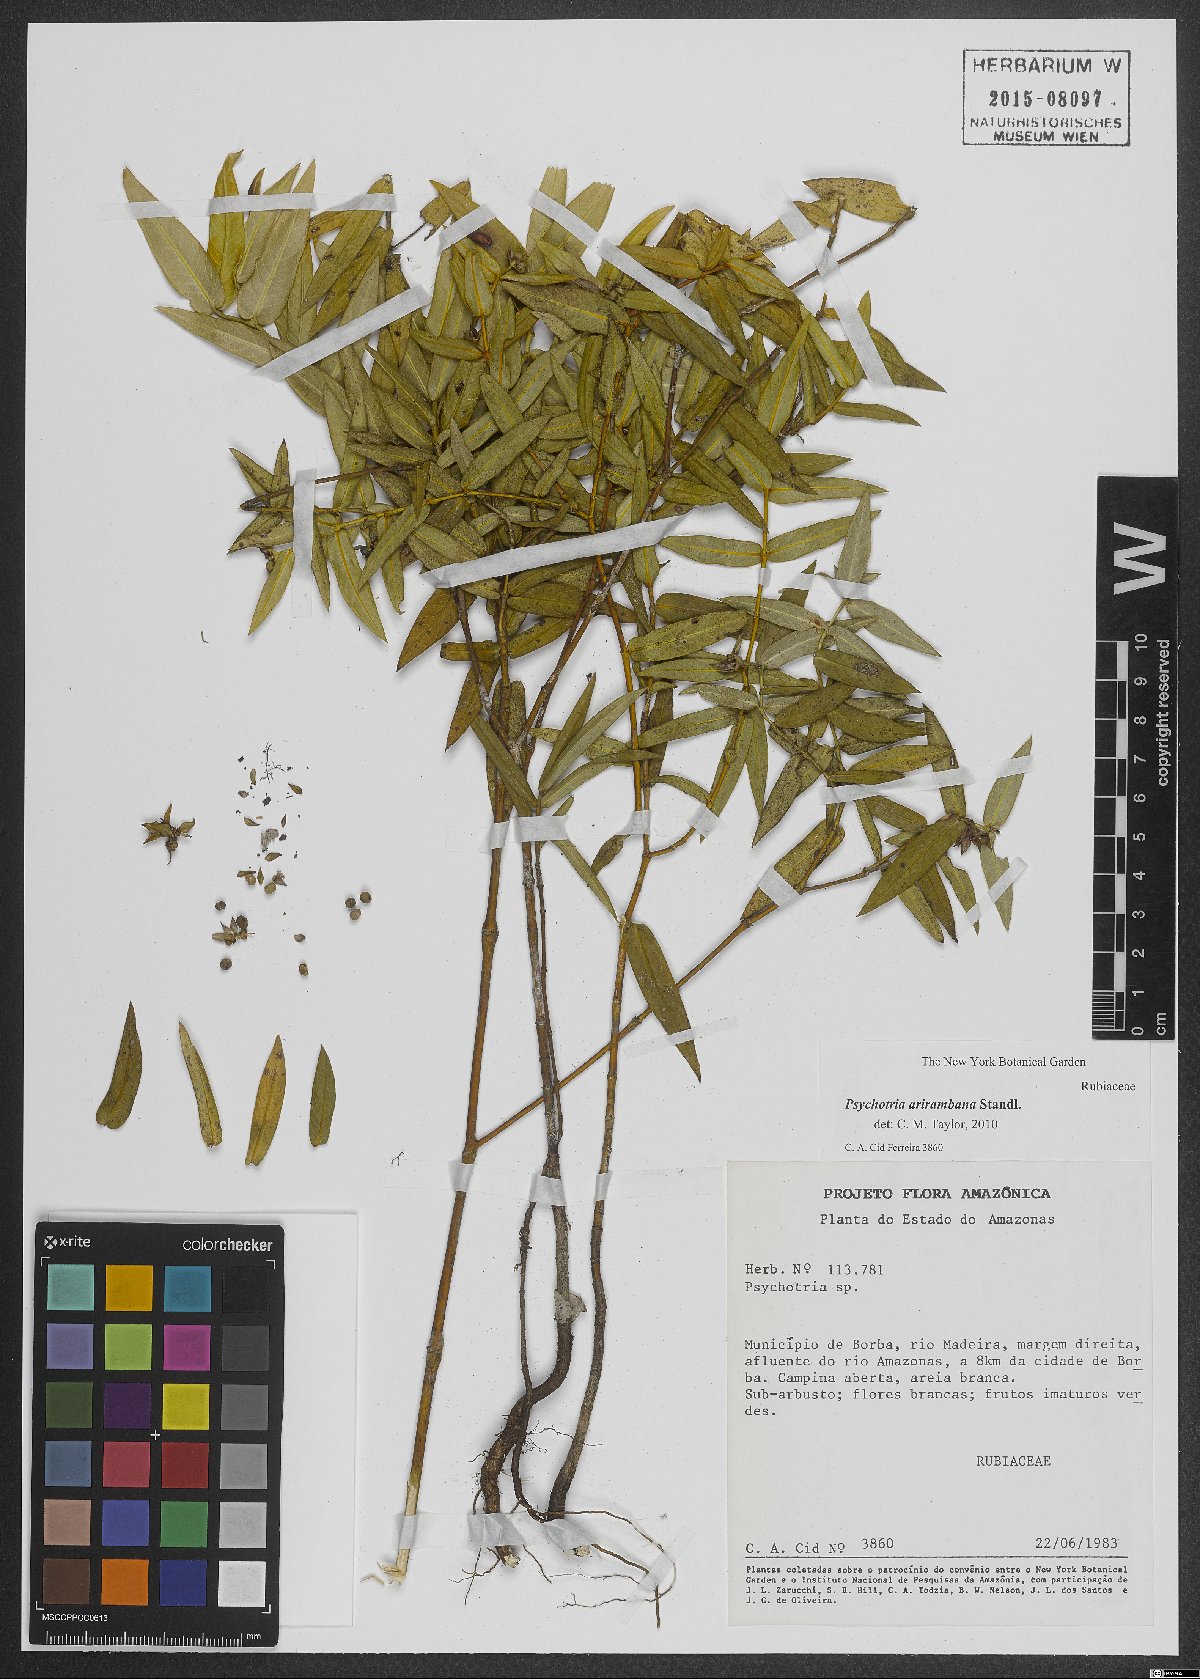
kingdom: Plantae
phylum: Tracheophyta
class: Magnoliopsida
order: Gentianales
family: Rubiaceae
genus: Psychotria
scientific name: Psychotria arirambana
